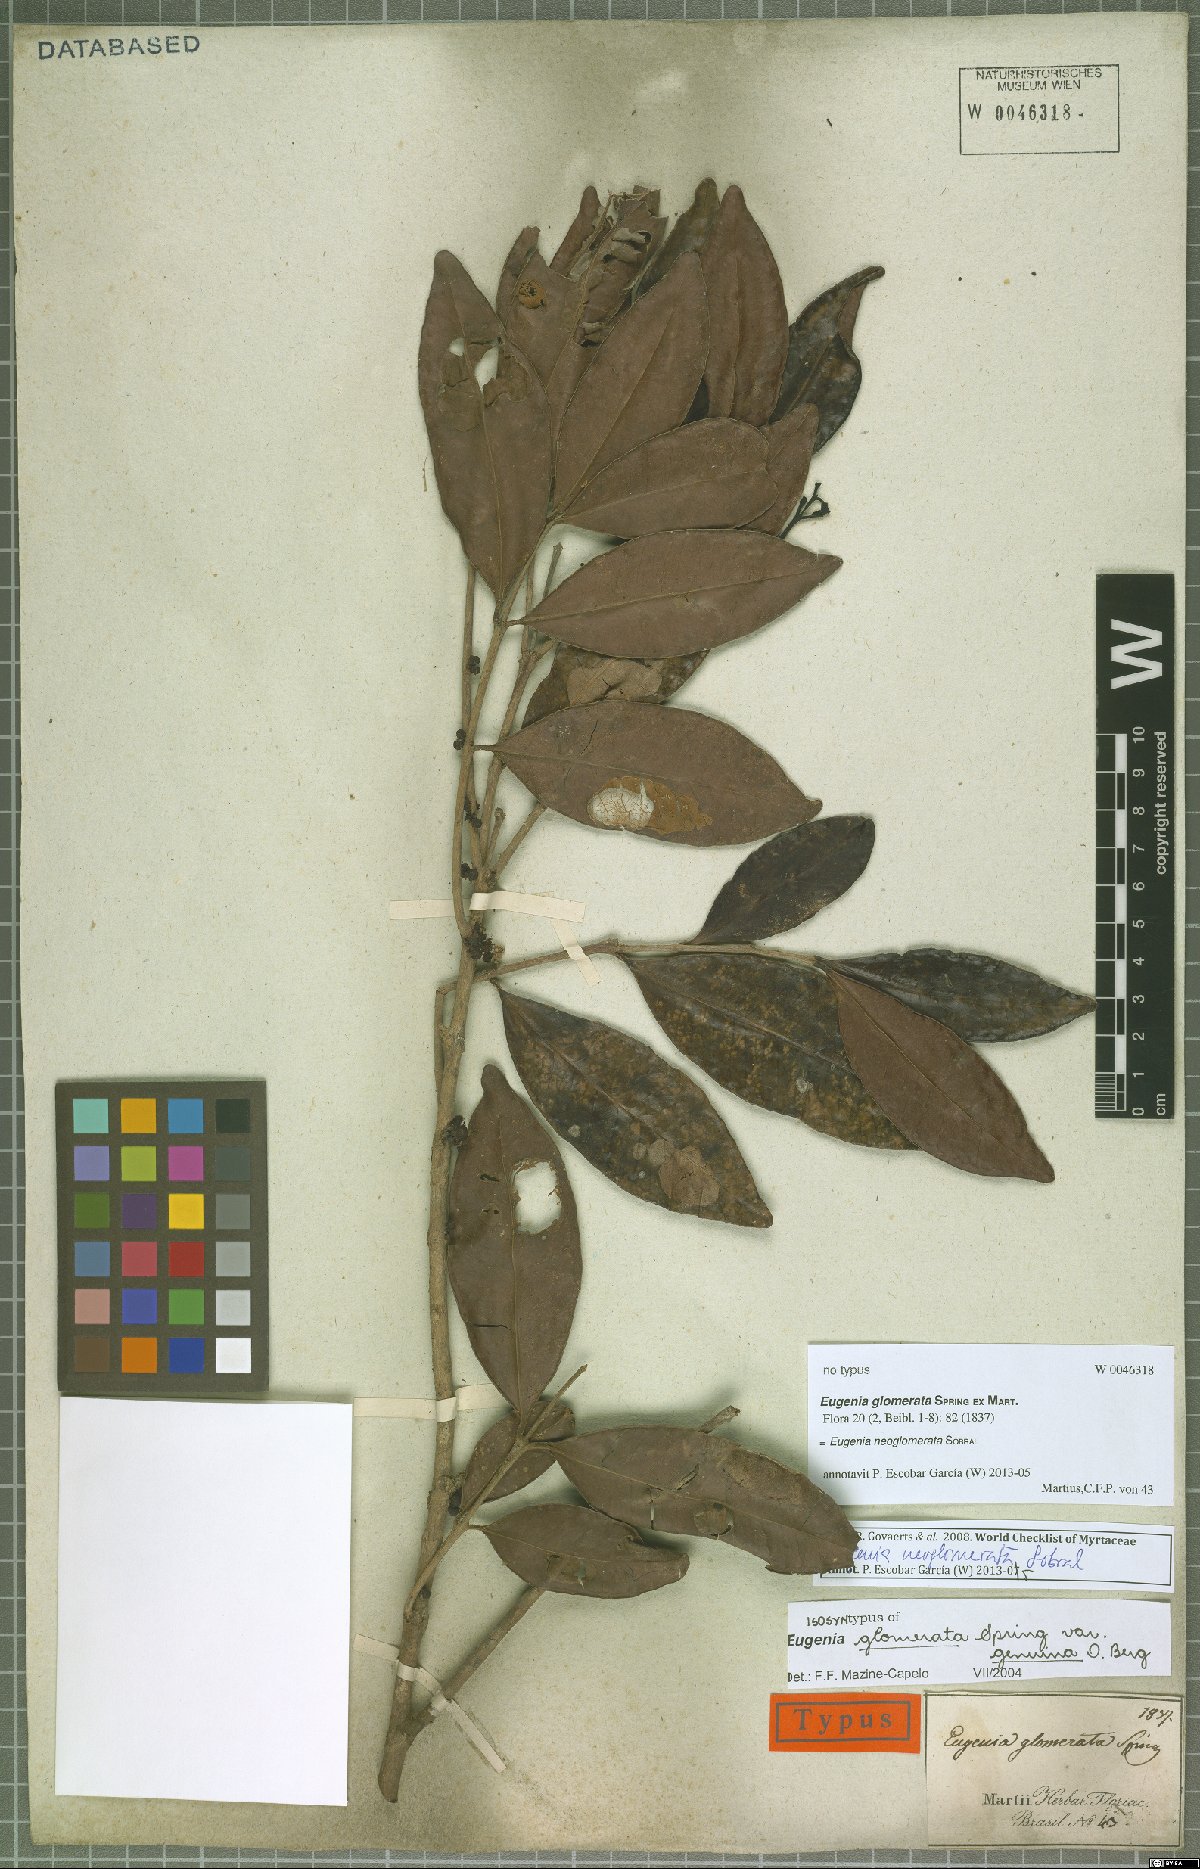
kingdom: Plantae
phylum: Tracheophyta
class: Magnoliopsida
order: Myrtales
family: Myrtaceae
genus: Eugenia
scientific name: Eugenia neoglomerata
